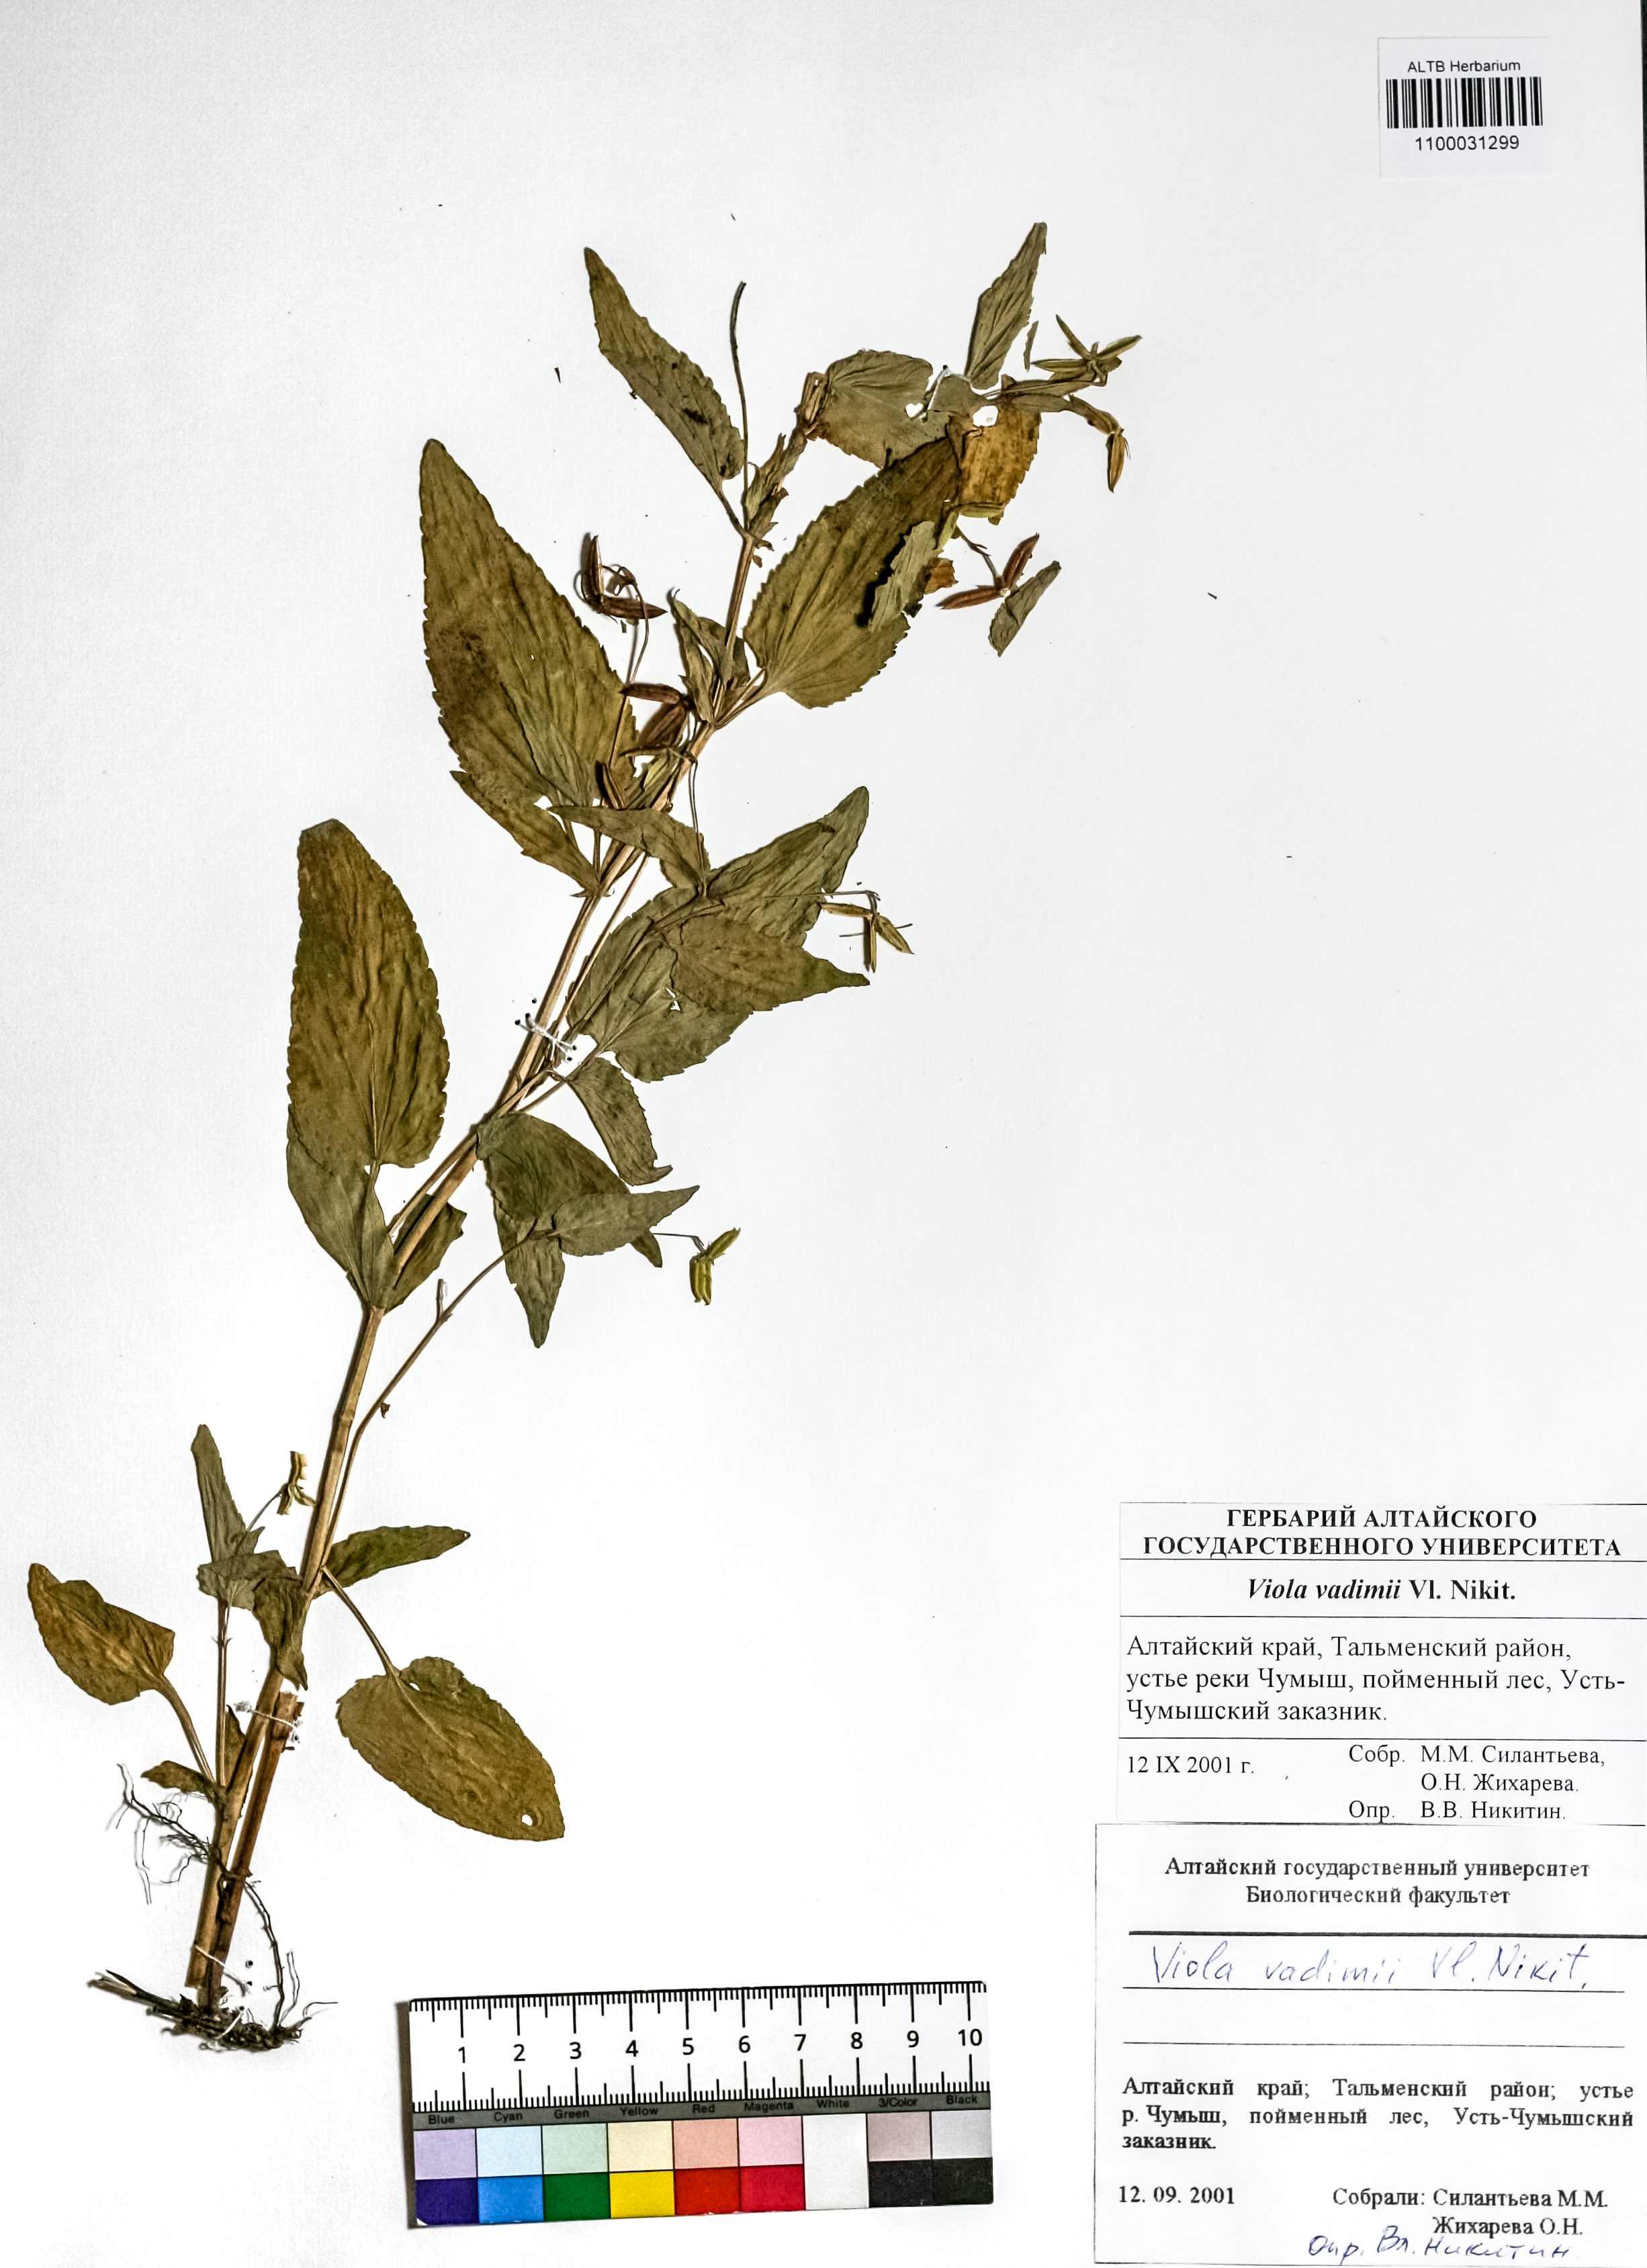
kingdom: Plantae
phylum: Tracheophyta
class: Magnoliopsida
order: Malpighiales
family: Violaceae
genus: Viola
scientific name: Viola elatior
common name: Tall violet
